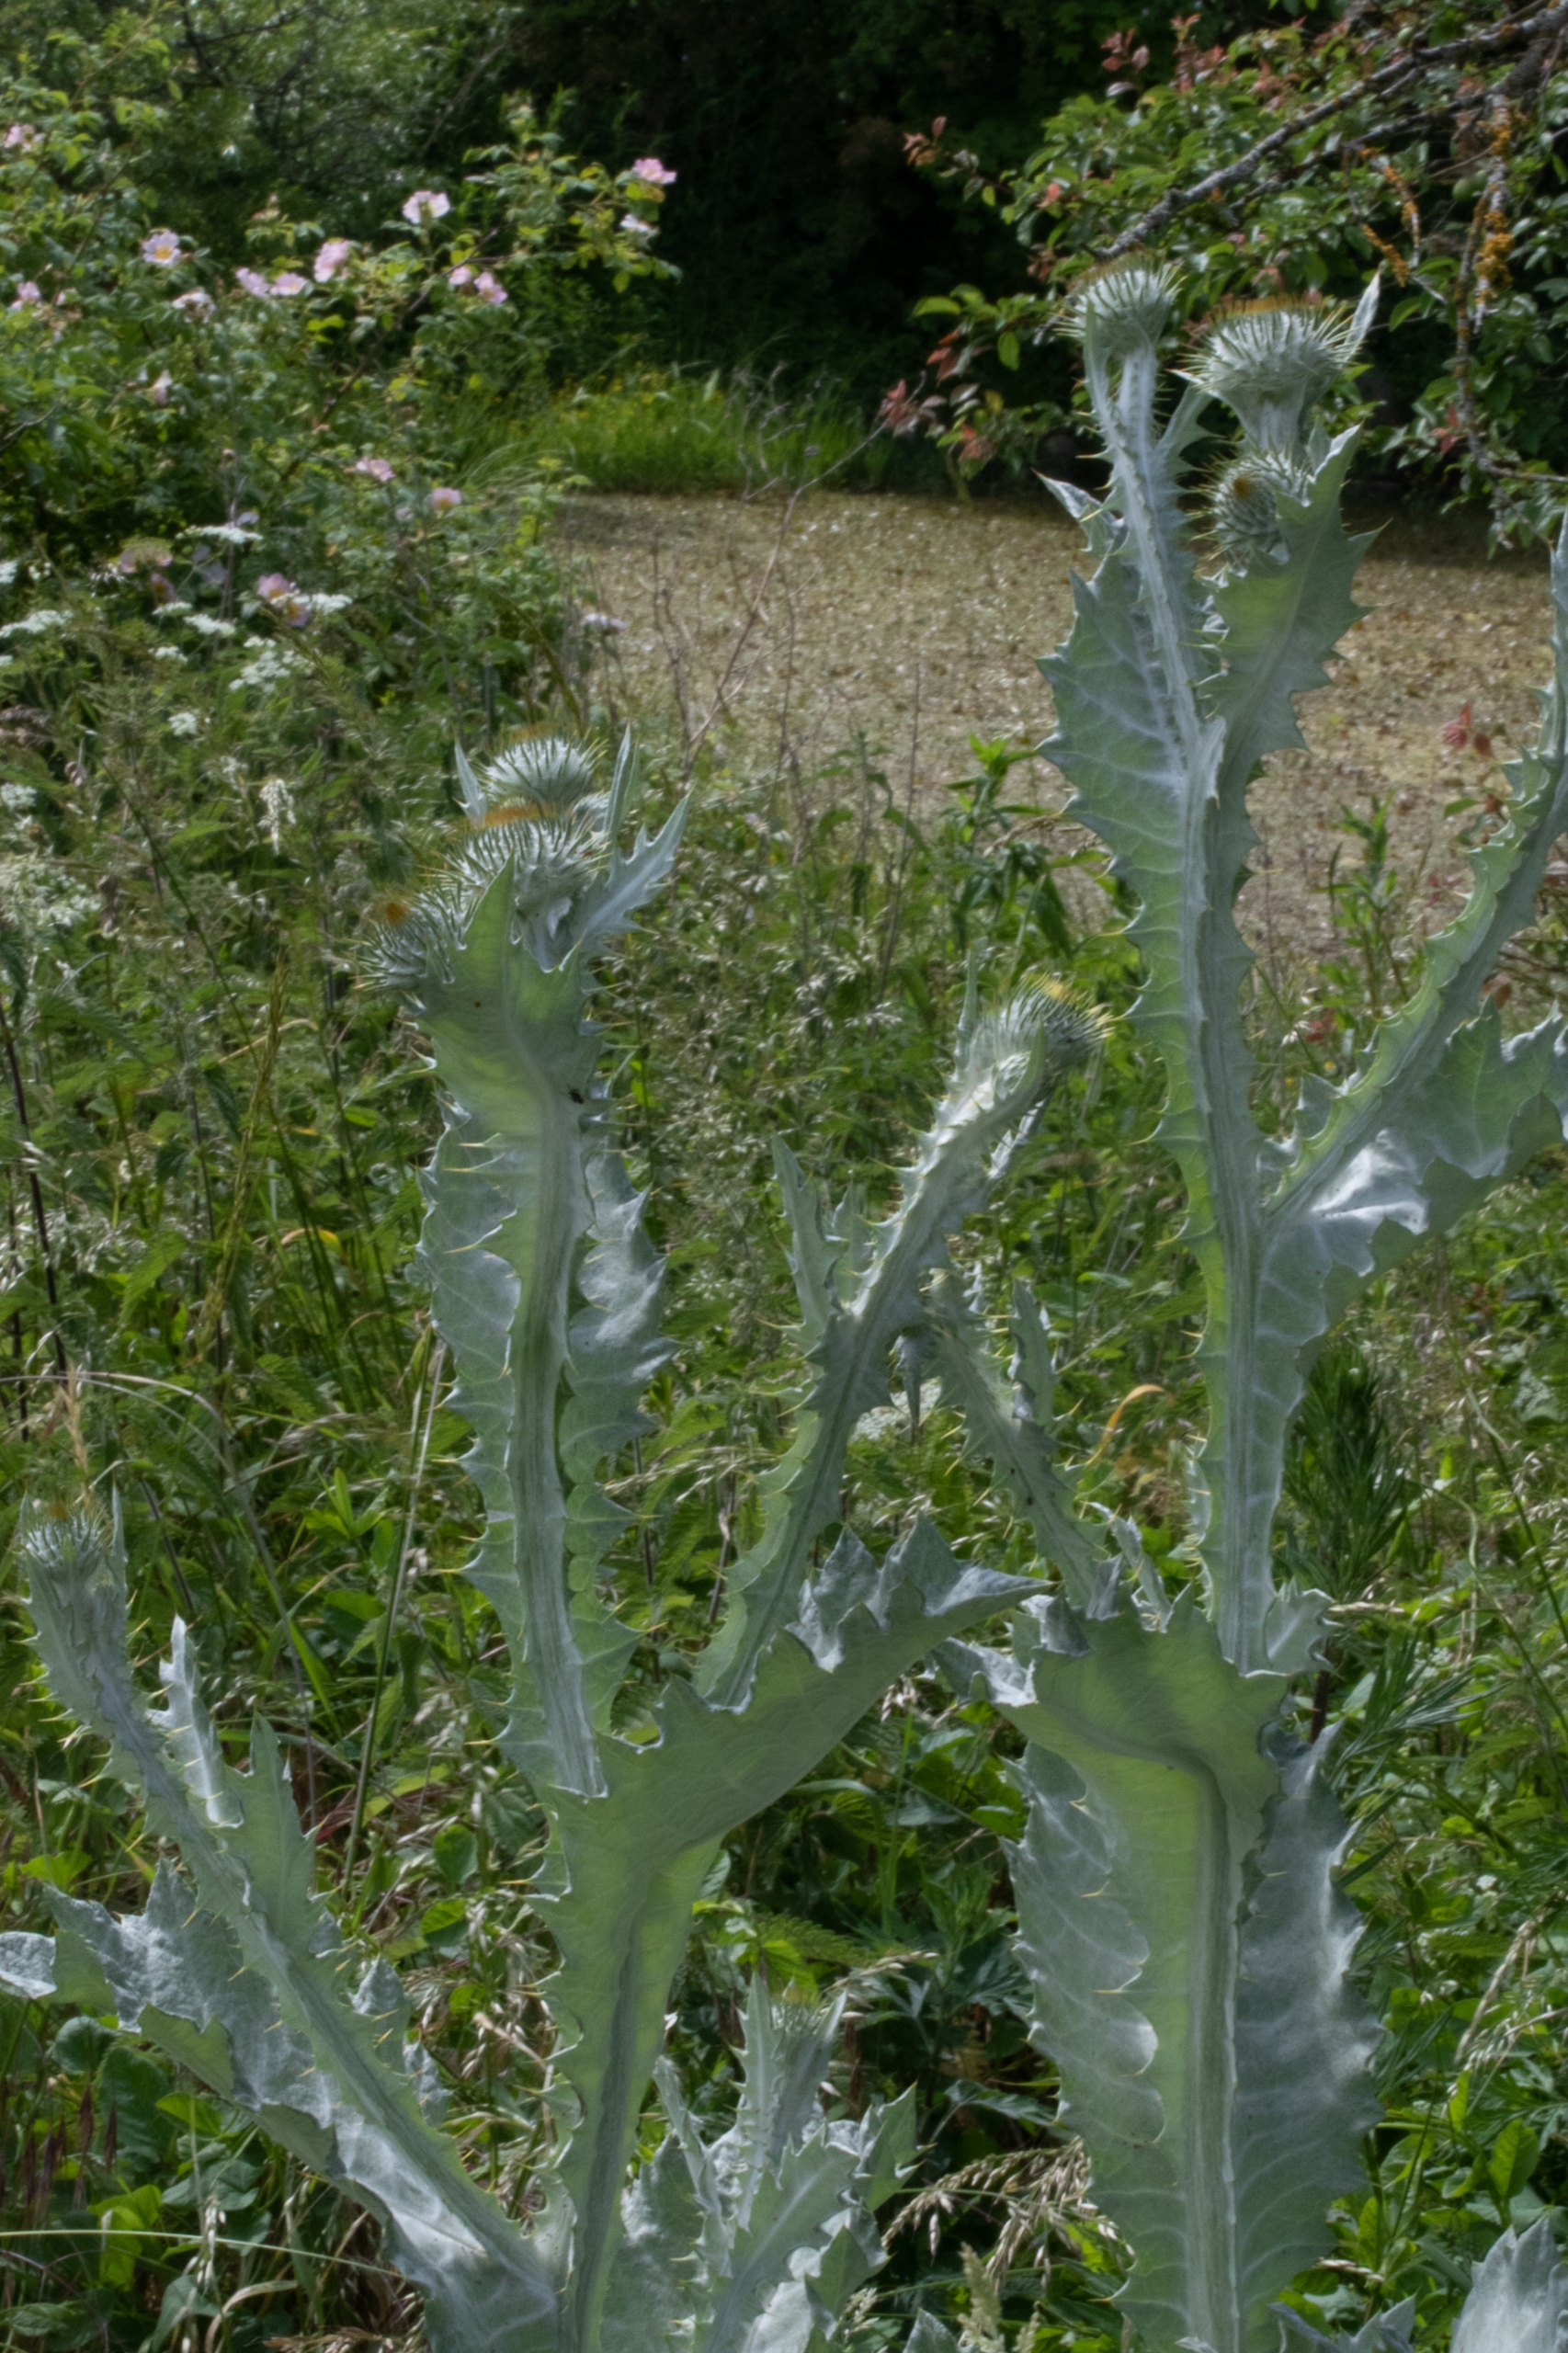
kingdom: Plantae
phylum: Tracheophyta
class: Magnoliopsida
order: Asterales
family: Asteraceae
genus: Onopordum
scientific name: Onopordum acanthium
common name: Æselfoder
